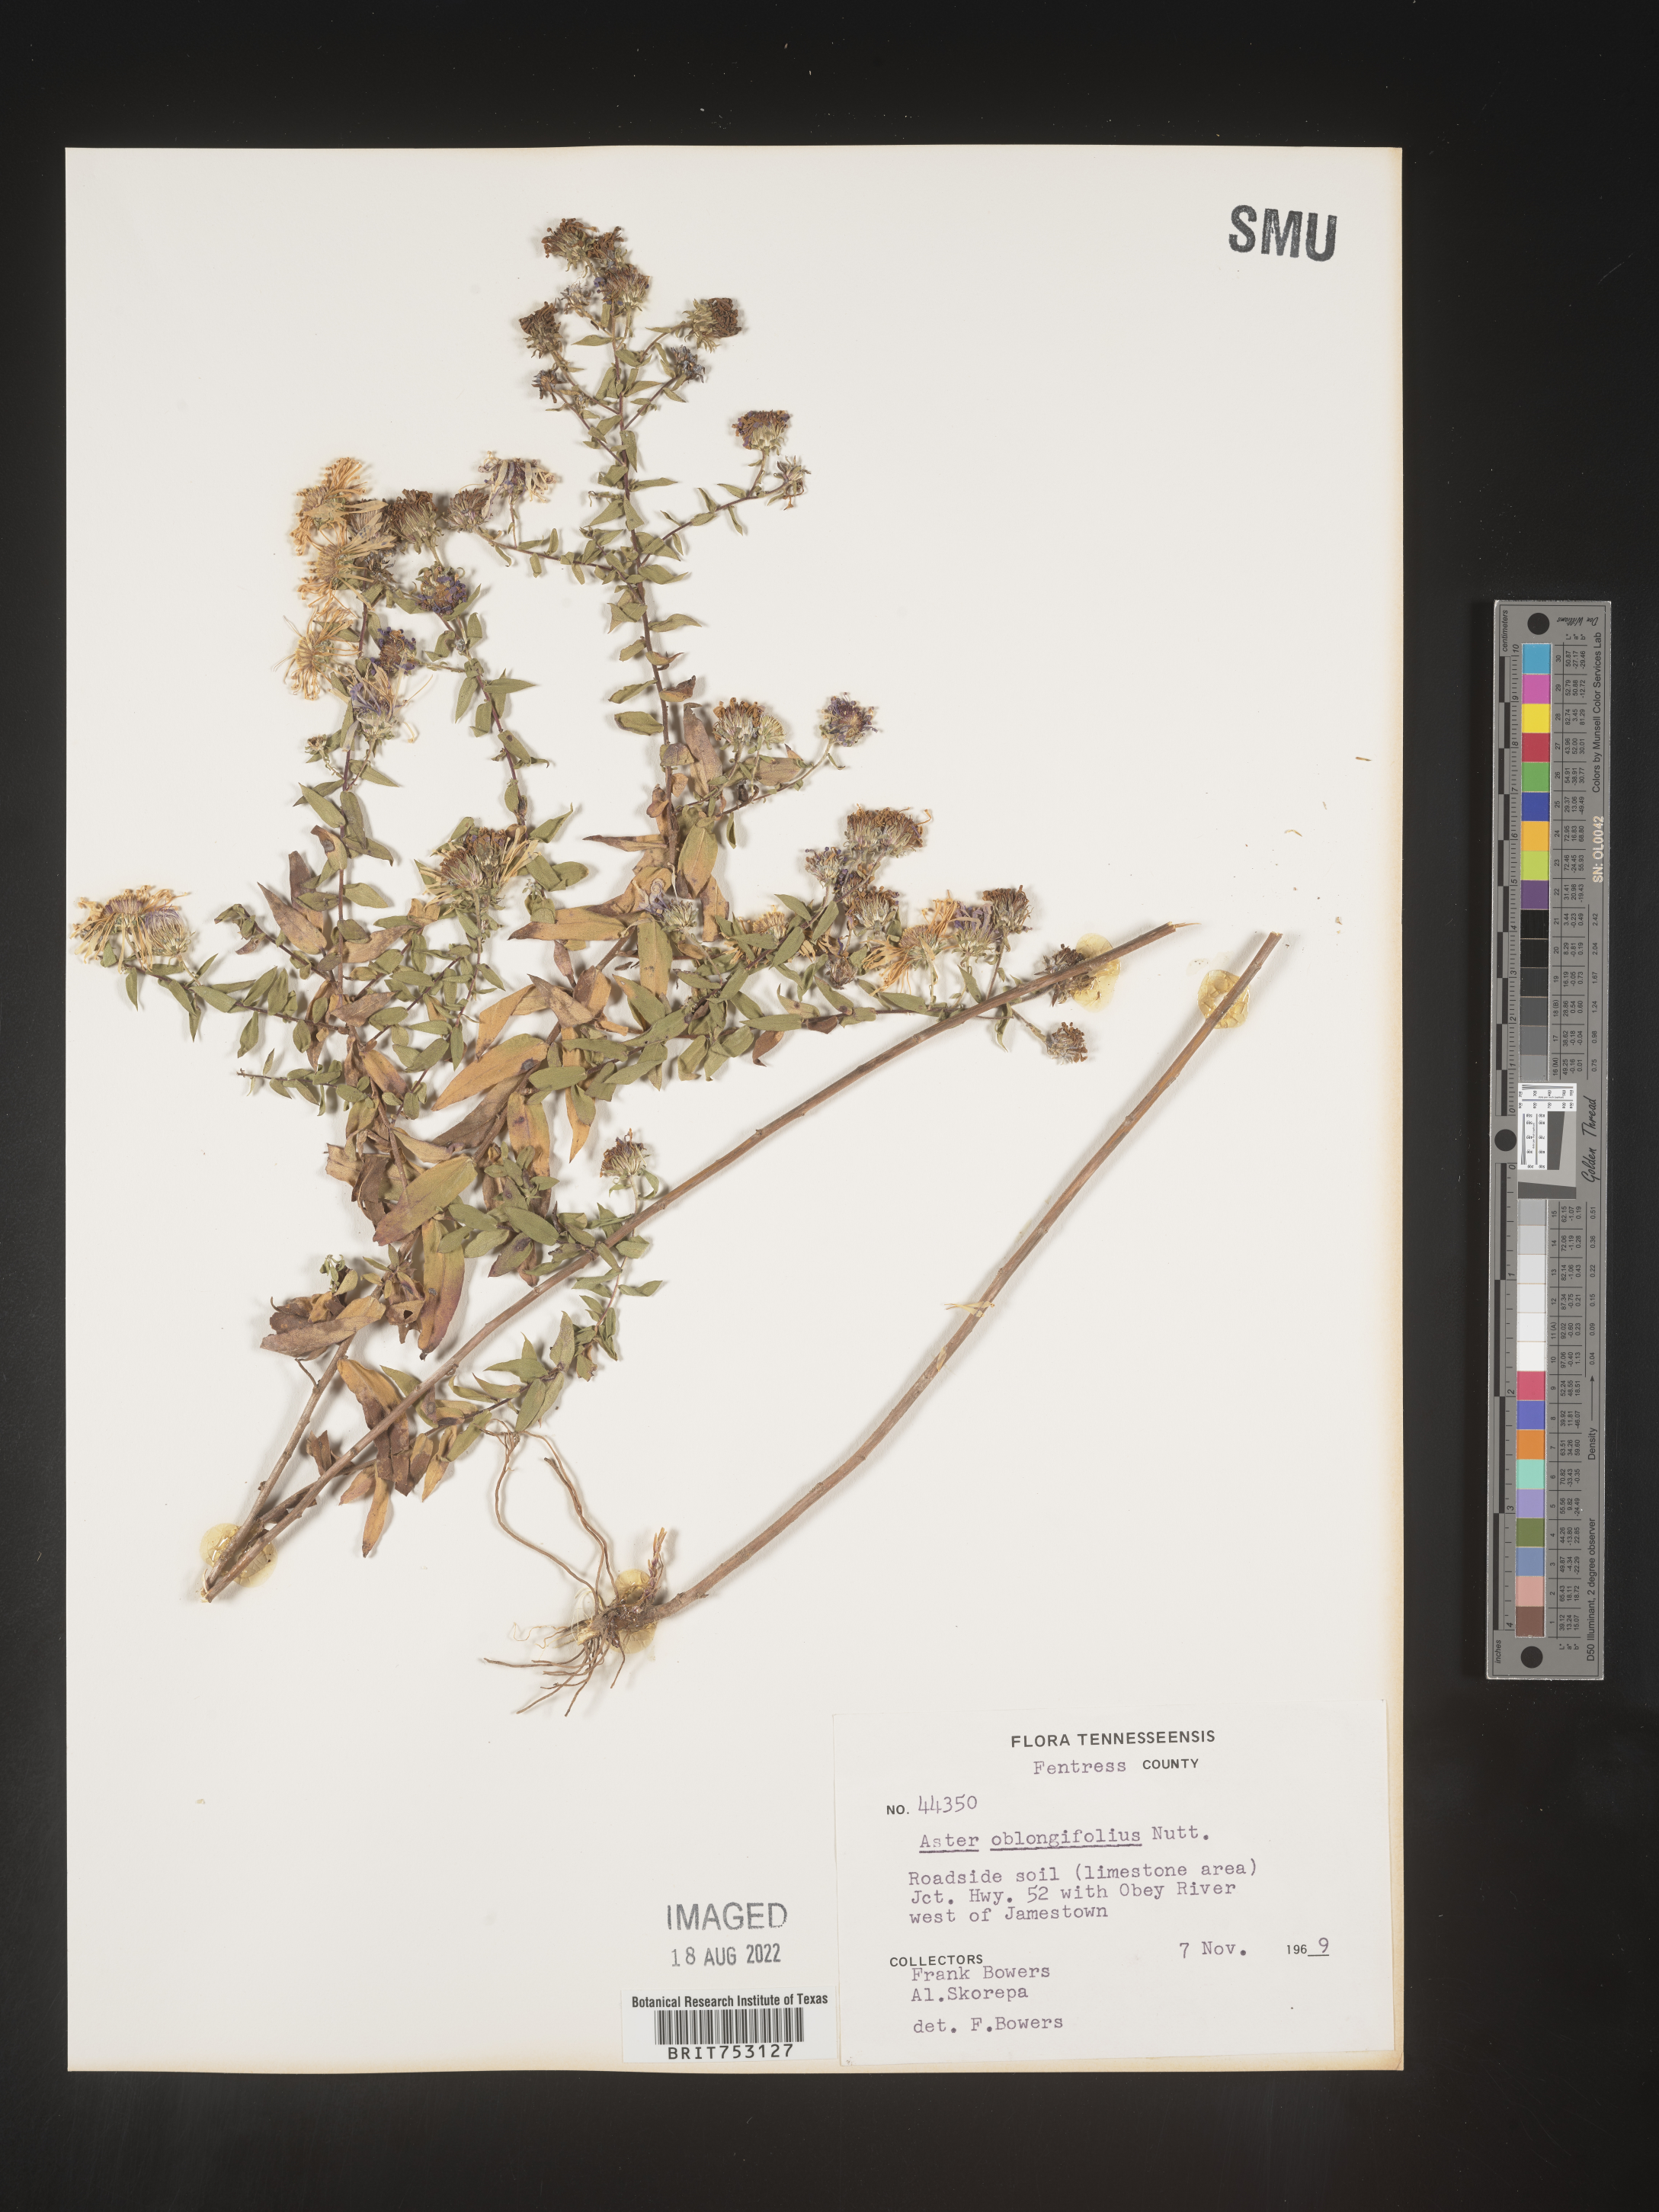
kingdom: Plantae
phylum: Tracheophyta
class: Magnoliopsida
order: Asterales
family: Asteraceae
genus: Symphyotrichum
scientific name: Symphyotrichum oblongifolium
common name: Aromatic aster
